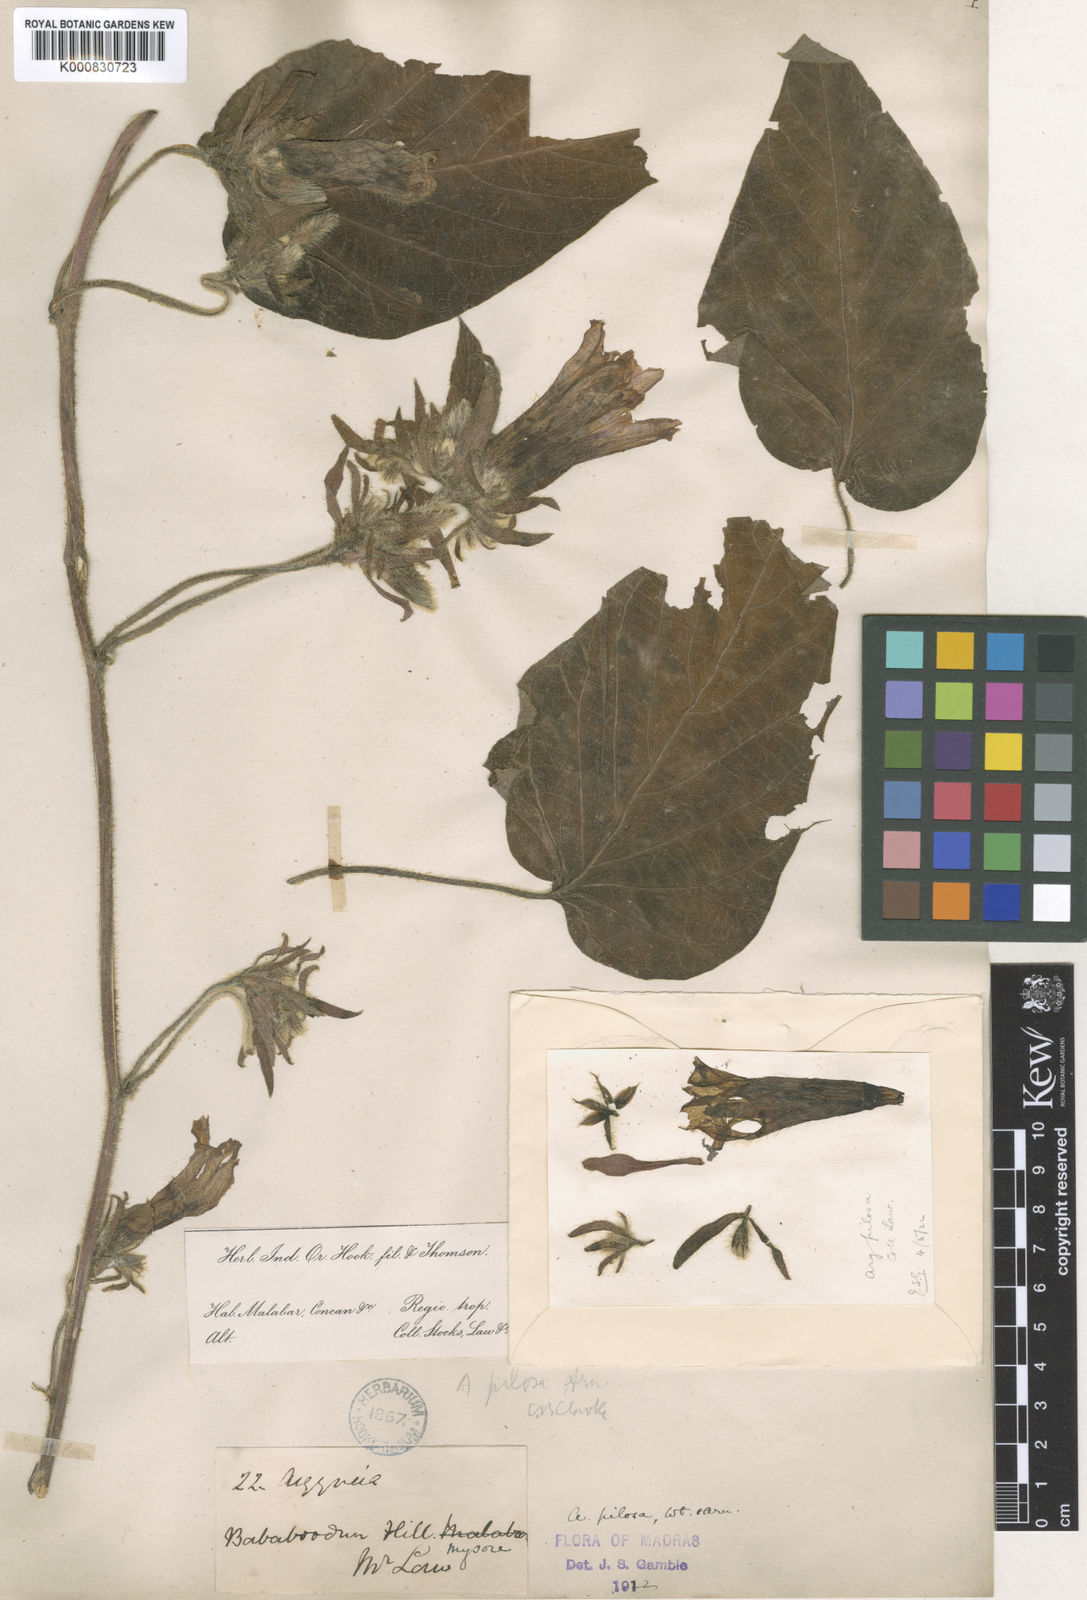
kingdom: Plantae
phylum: Tracheophyta
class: Magnoliopsida
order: Solanales
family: Convolvulaceae
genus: Argyreia
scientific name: Argyreia srinivasanii
